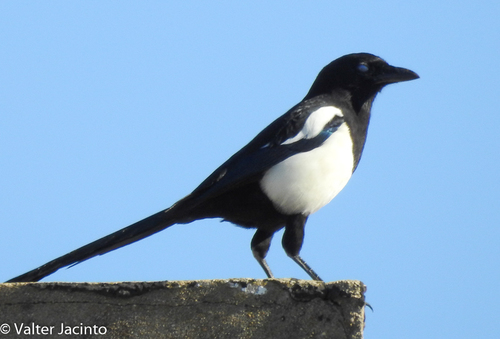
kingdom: Animalia
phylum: Chordata
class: Aves
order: Passeriformes
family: Corvidae
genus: Pica
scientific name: Pica pica
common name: Eurasian magpie
